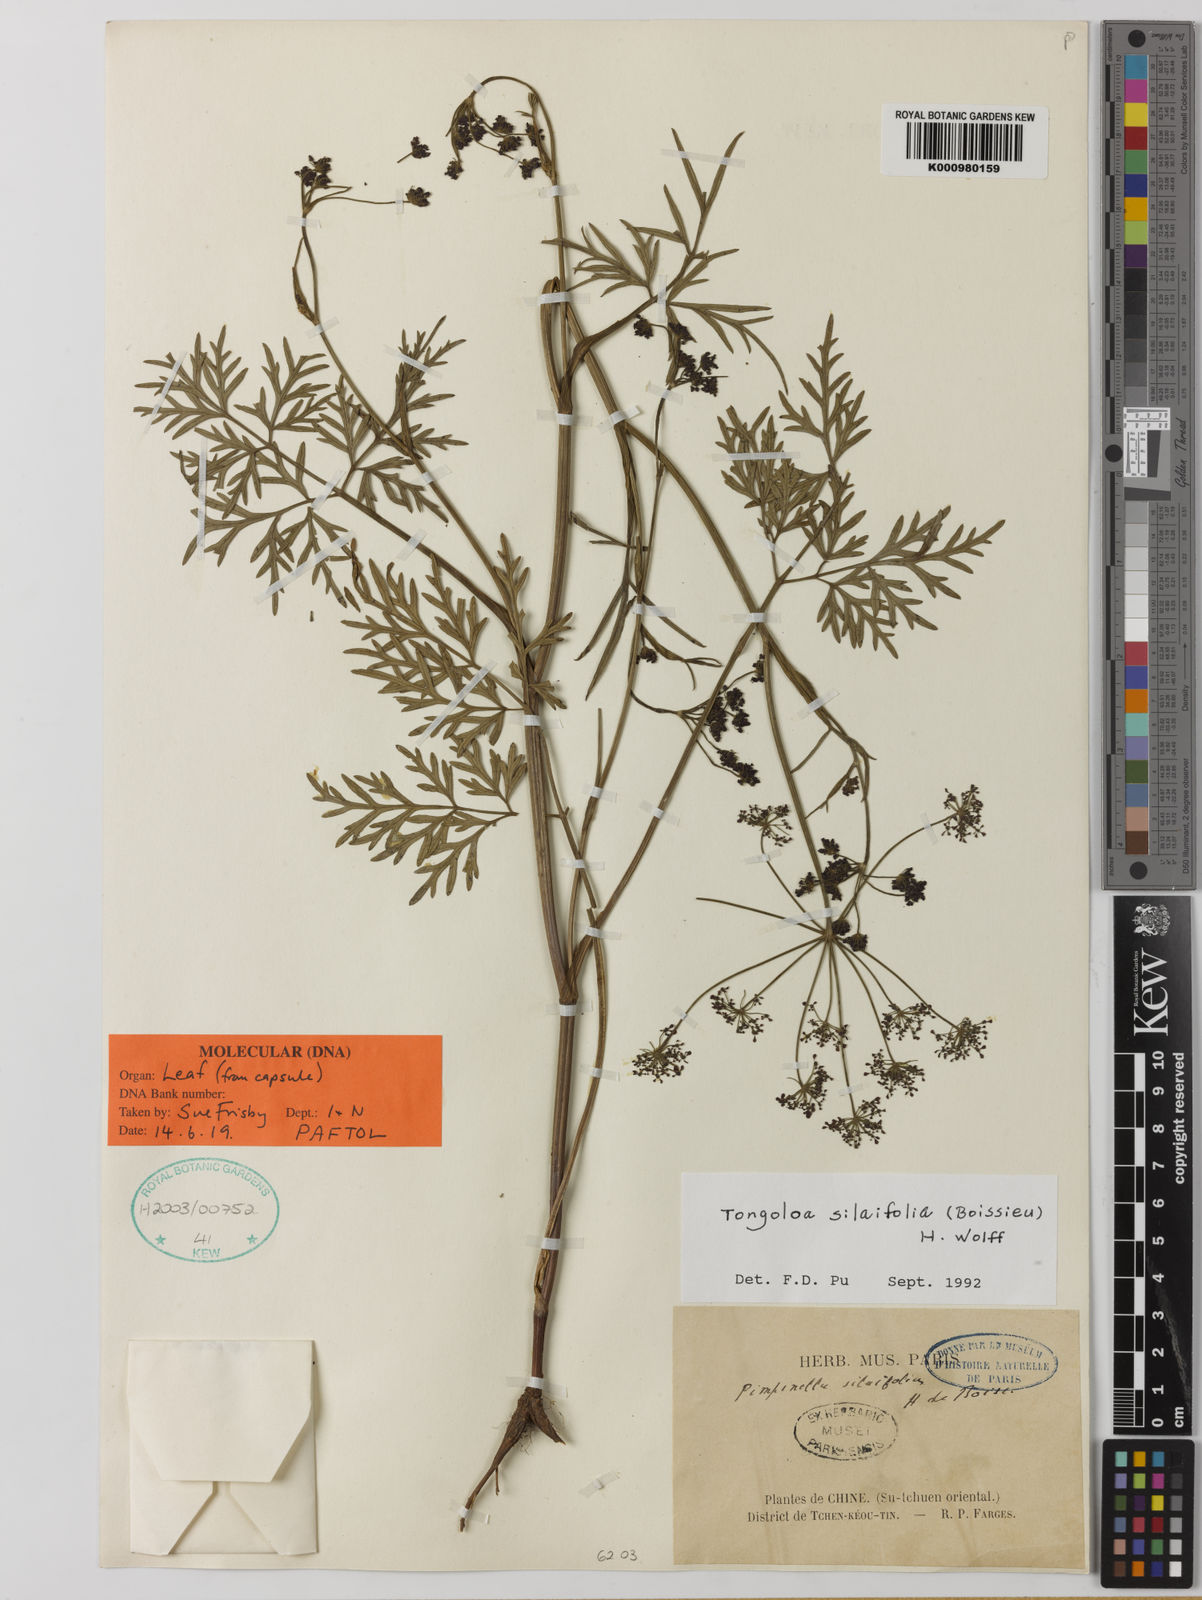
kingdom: Plantae
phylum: Tracheophyta
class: Magnoliopsida
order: Apiales
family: Apiaceae
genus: Tongoloa
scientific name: Tongoloa silaifolia
